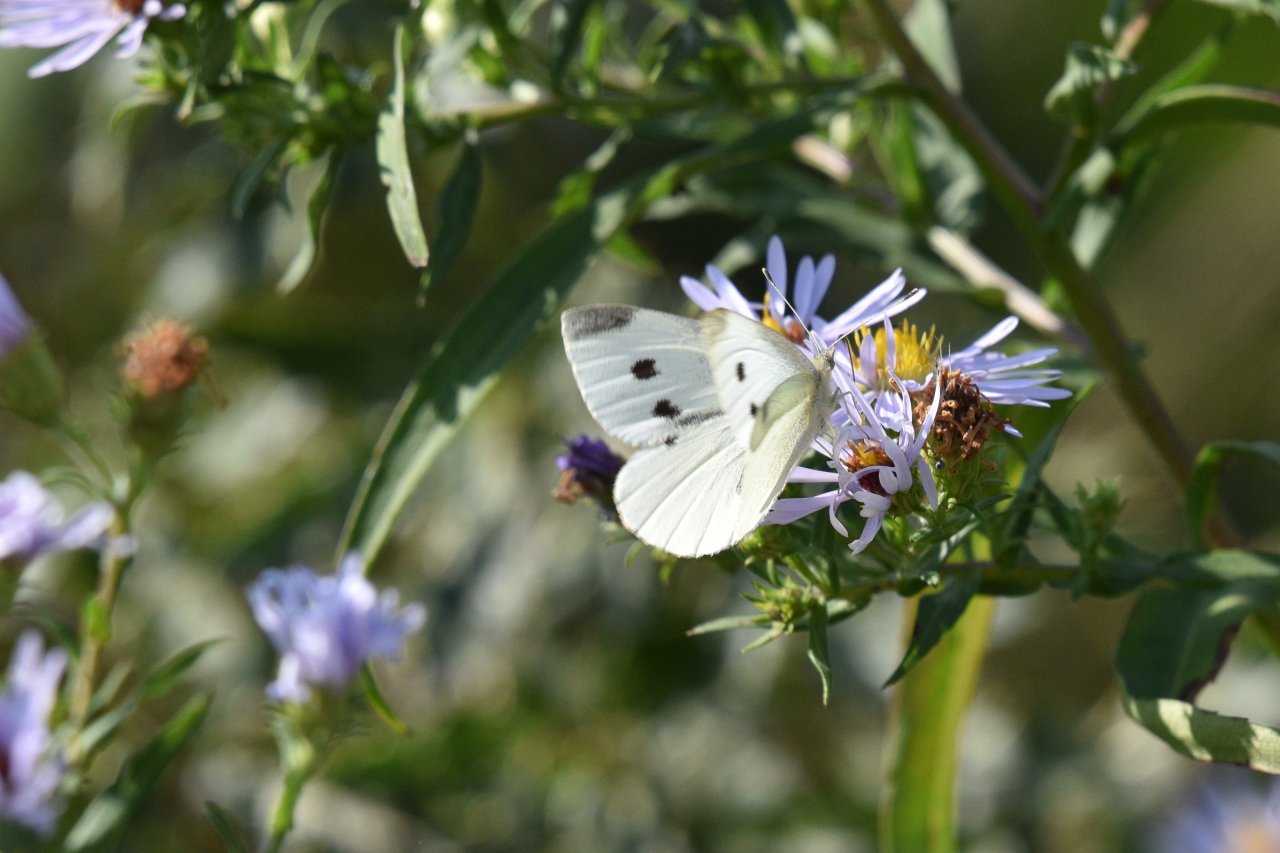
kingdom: Animalia
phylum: Arthropoda
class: Insecta
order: Lepidoptera
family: Pieridae
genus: Pieris
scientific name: Pieris rapae
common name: Cabbage White
